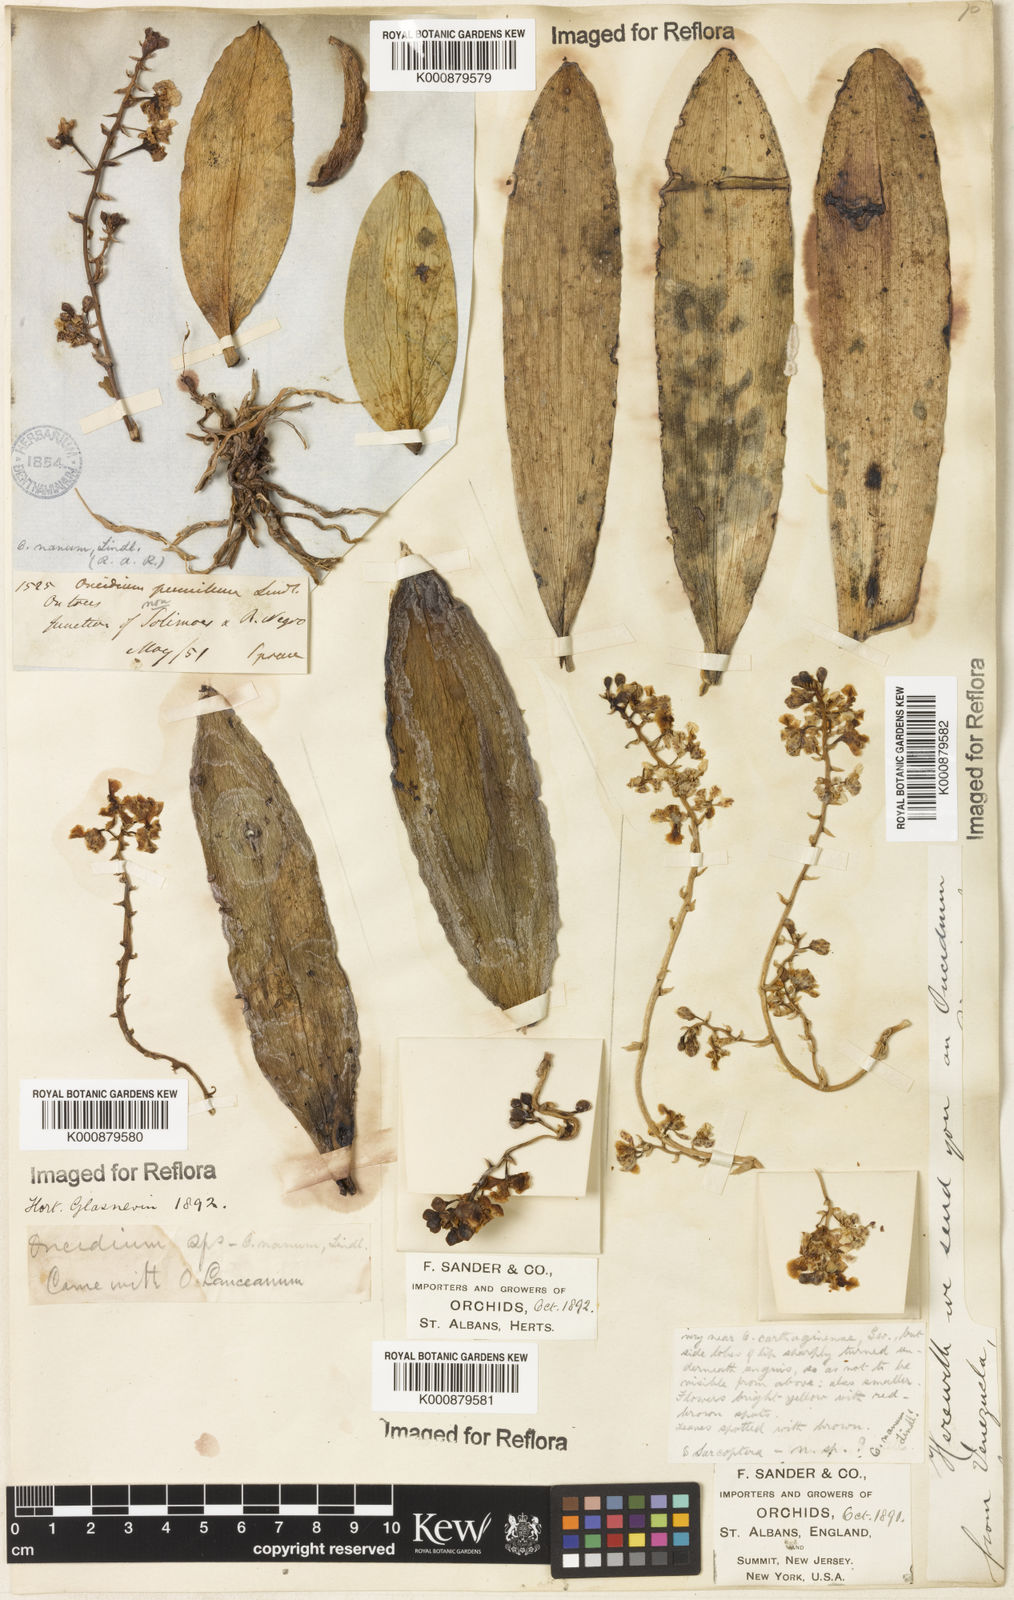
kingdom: Plantae
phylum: Tracheophyta
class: Liliopsida
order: Asparagales
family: Orchidaceae
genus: Trichocentrum
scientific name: Trichocentrum nanum
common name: Mule-ear orchid
